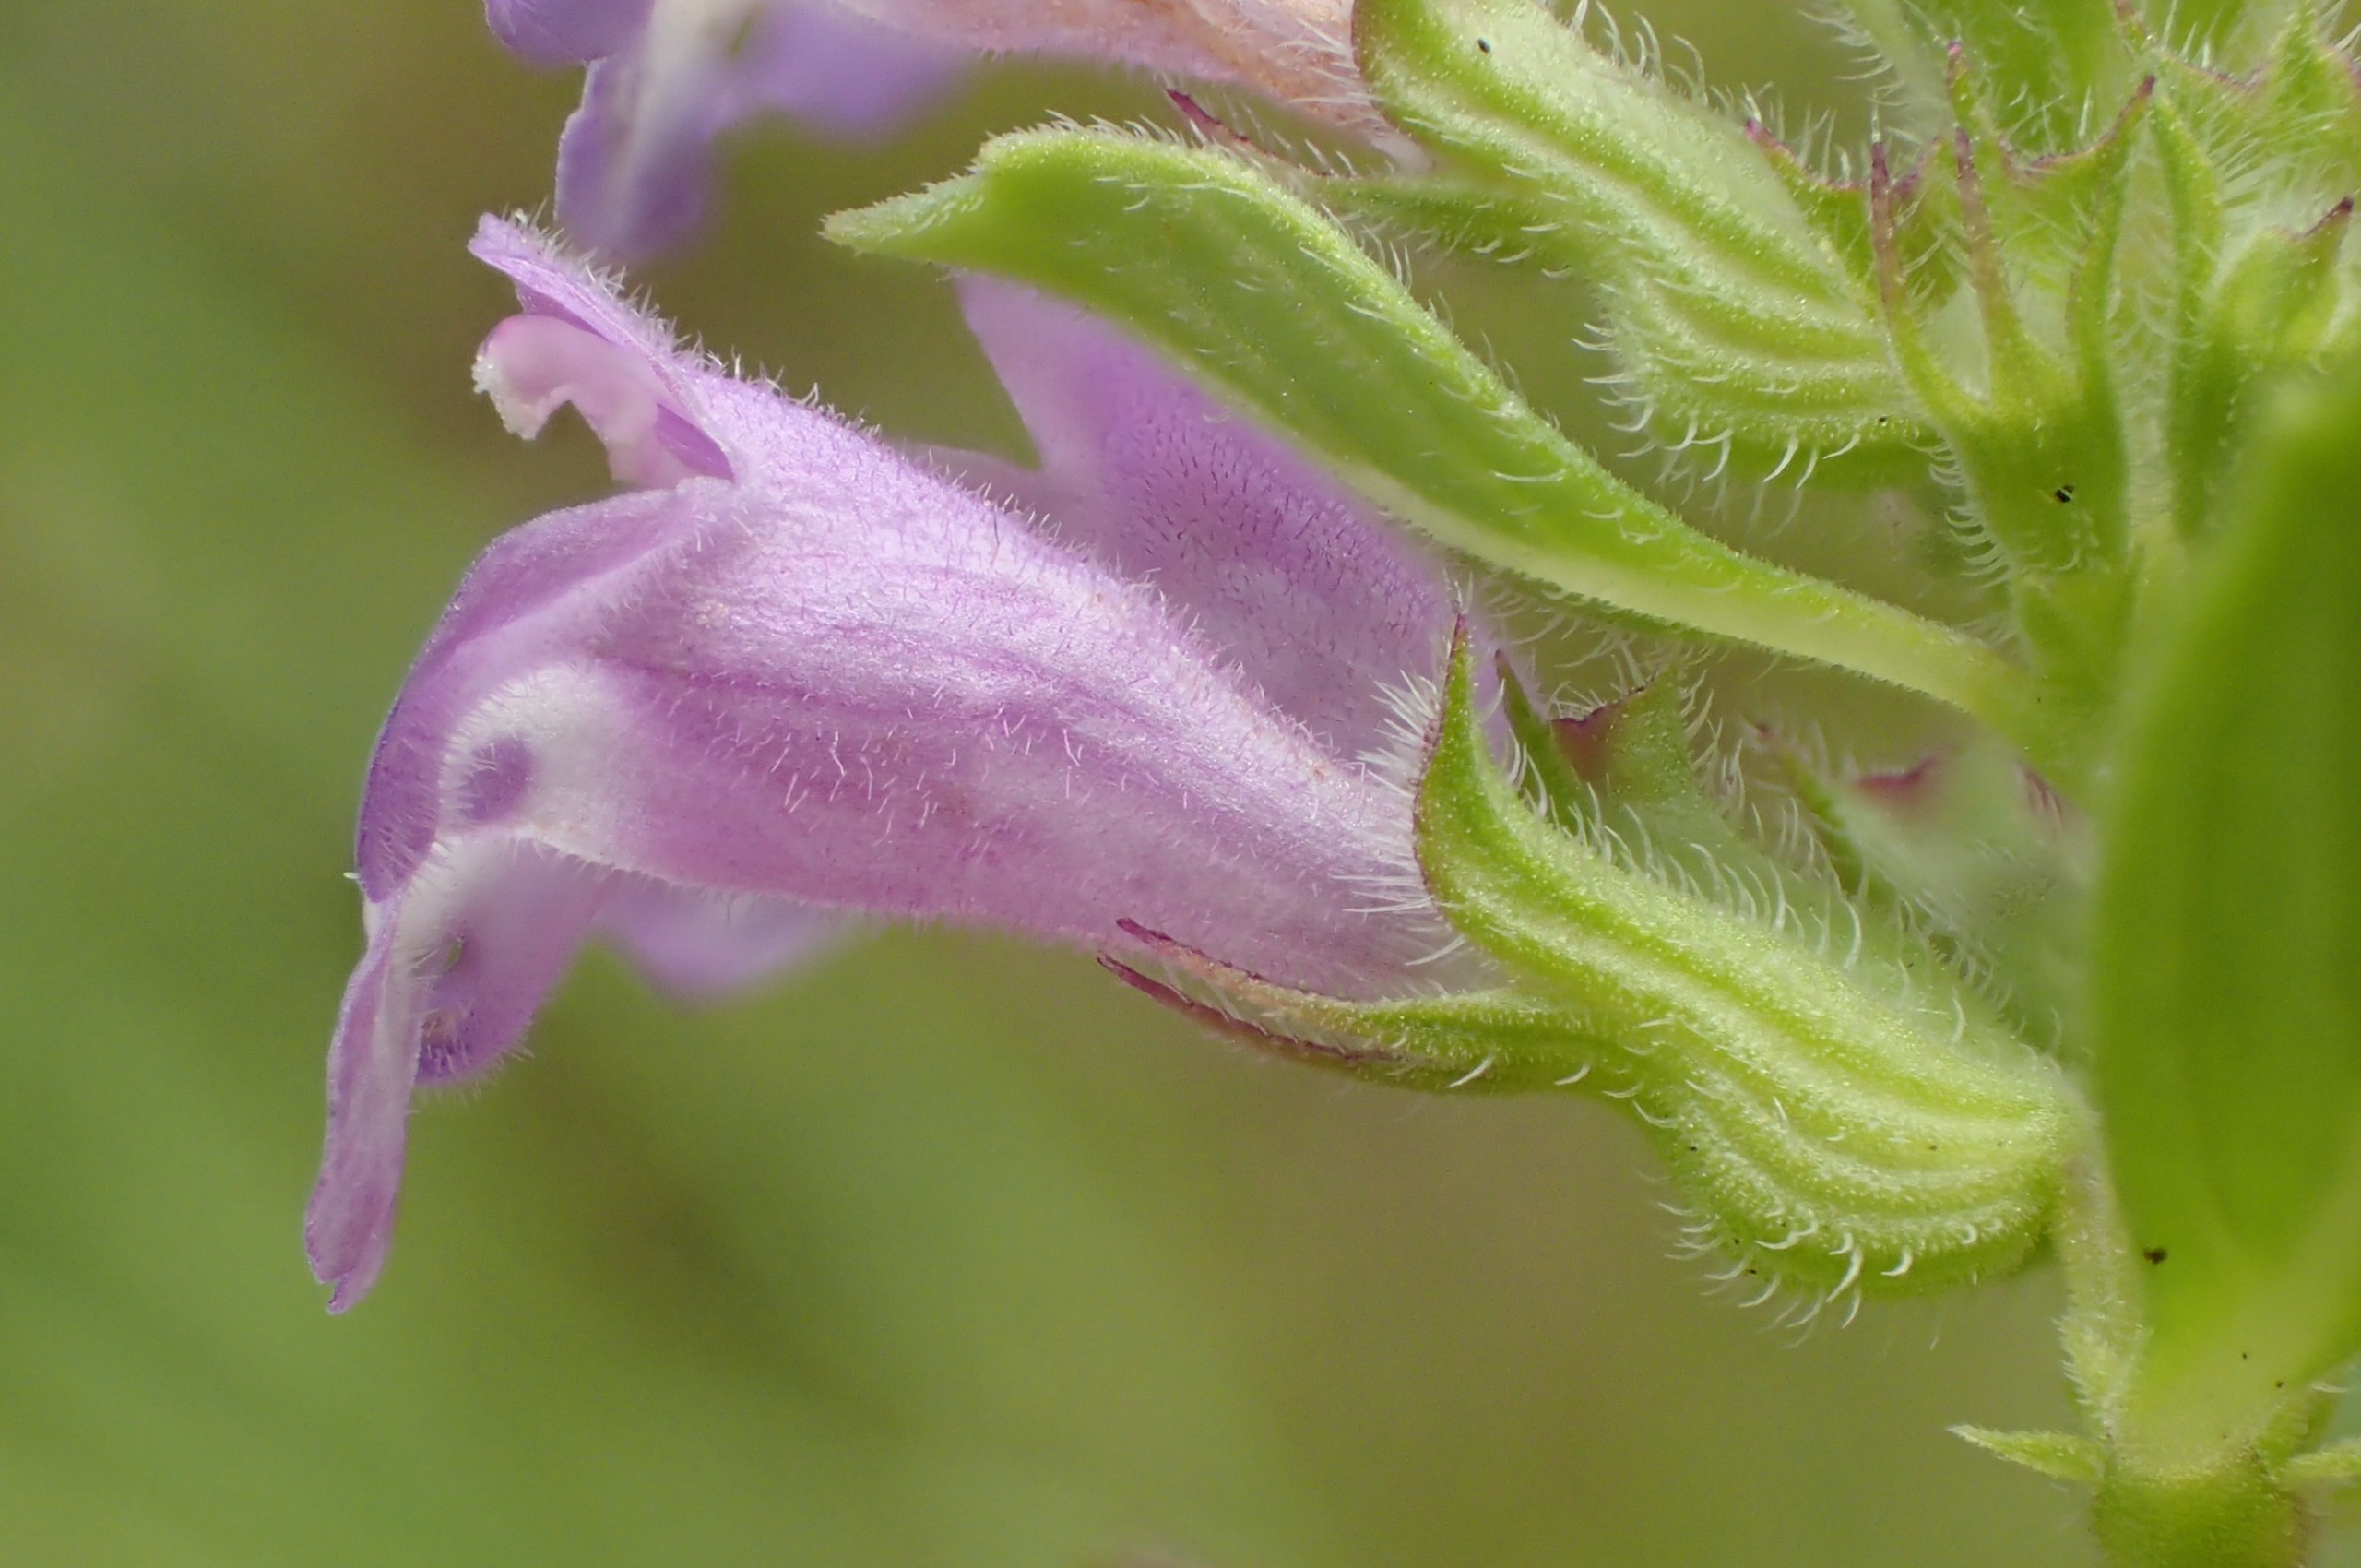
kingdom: Plantae
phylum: Tracheophyta
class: Magnoliopsida
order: Lamiales
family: Lamiaceae
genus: Clinopodium
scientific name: Clinopodium acinos
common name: Voldtimian
